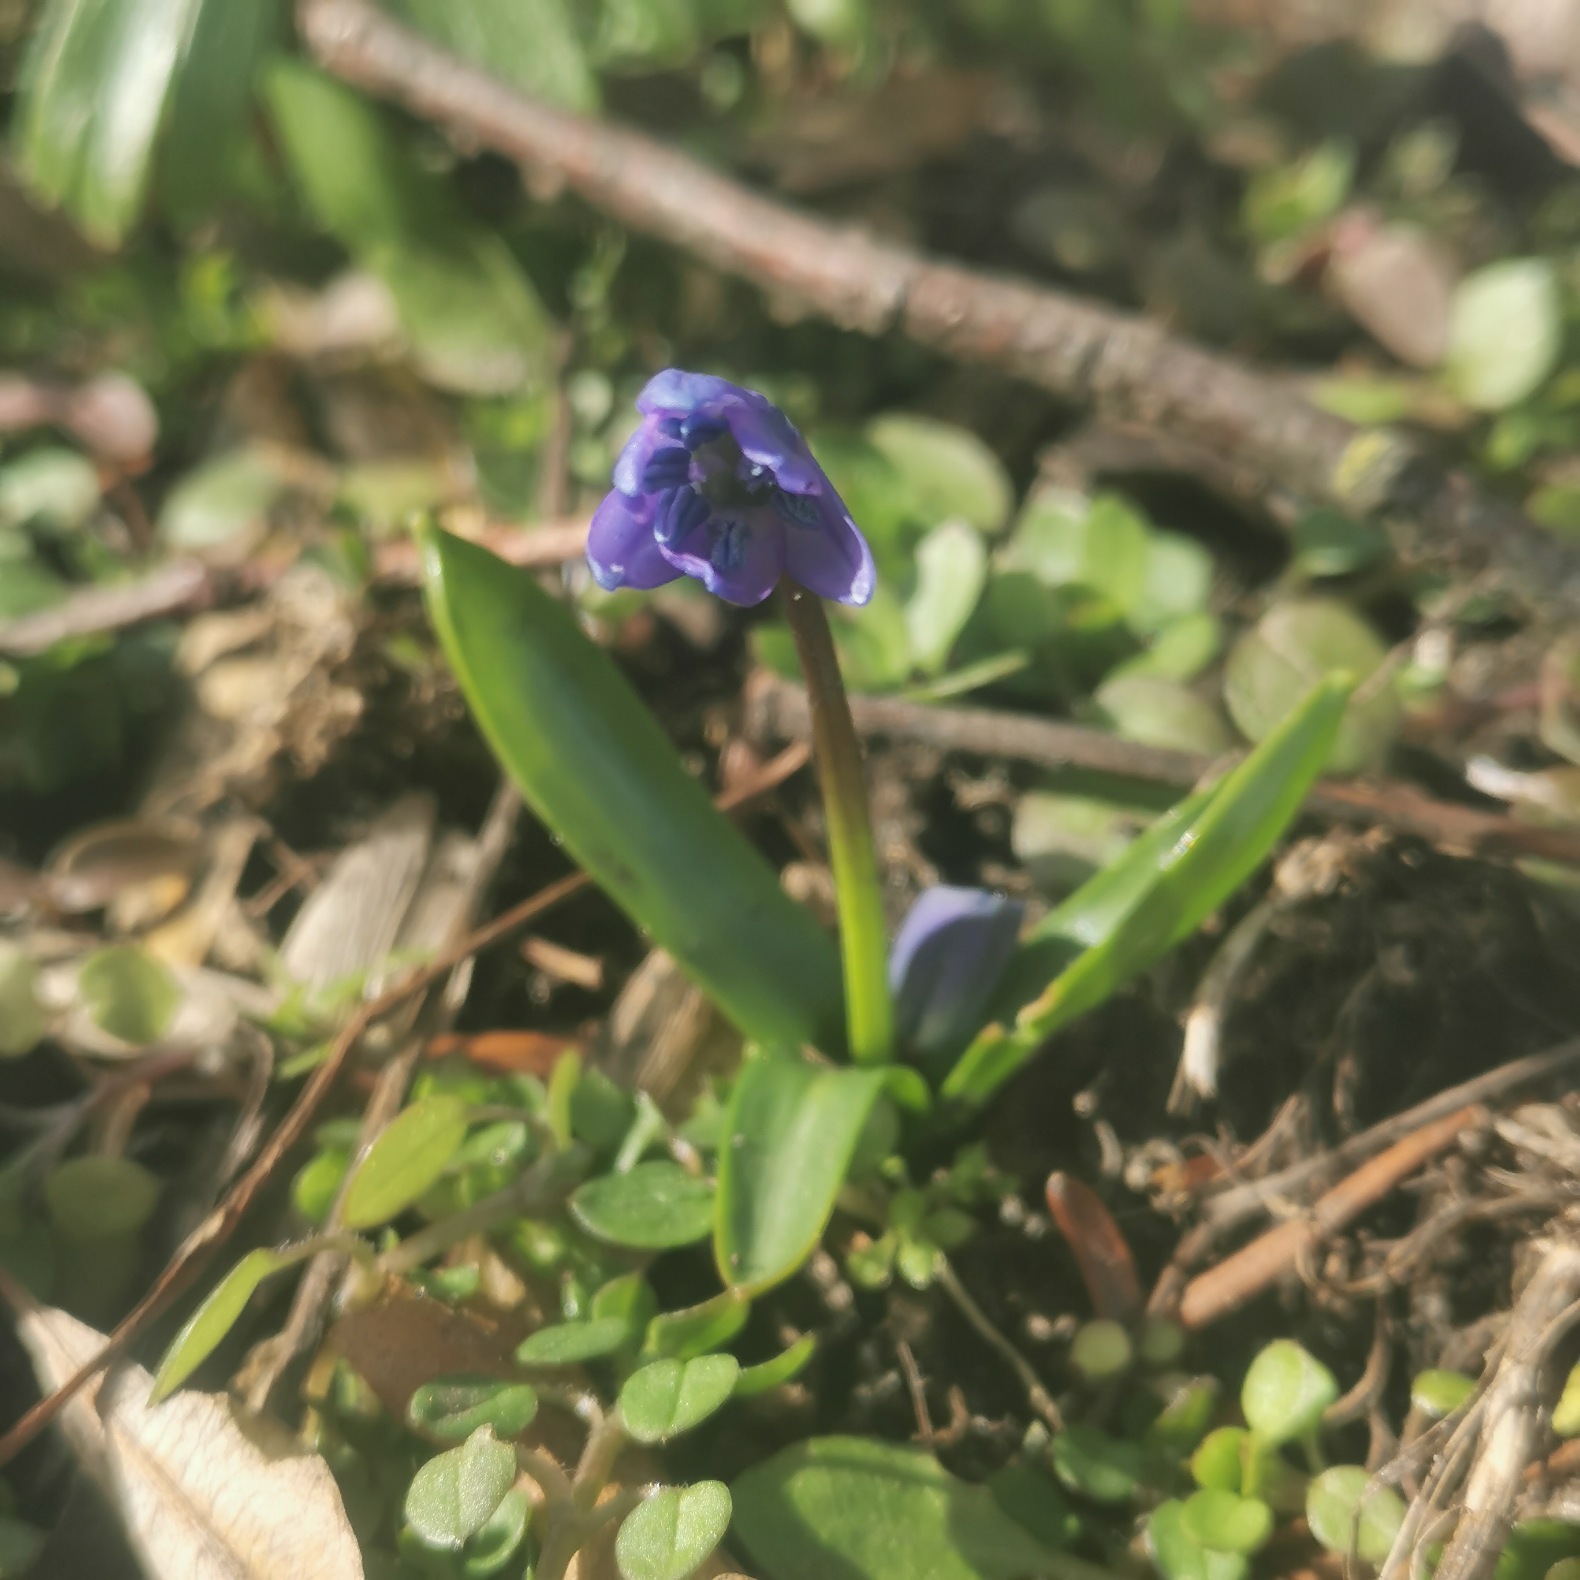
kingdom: Plantae
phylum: Tracheophyta
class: Liliopsida
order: Asparagales
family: Asparagaceae
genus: Scilla
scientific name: Scilla siberica
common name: Russisk skilla
